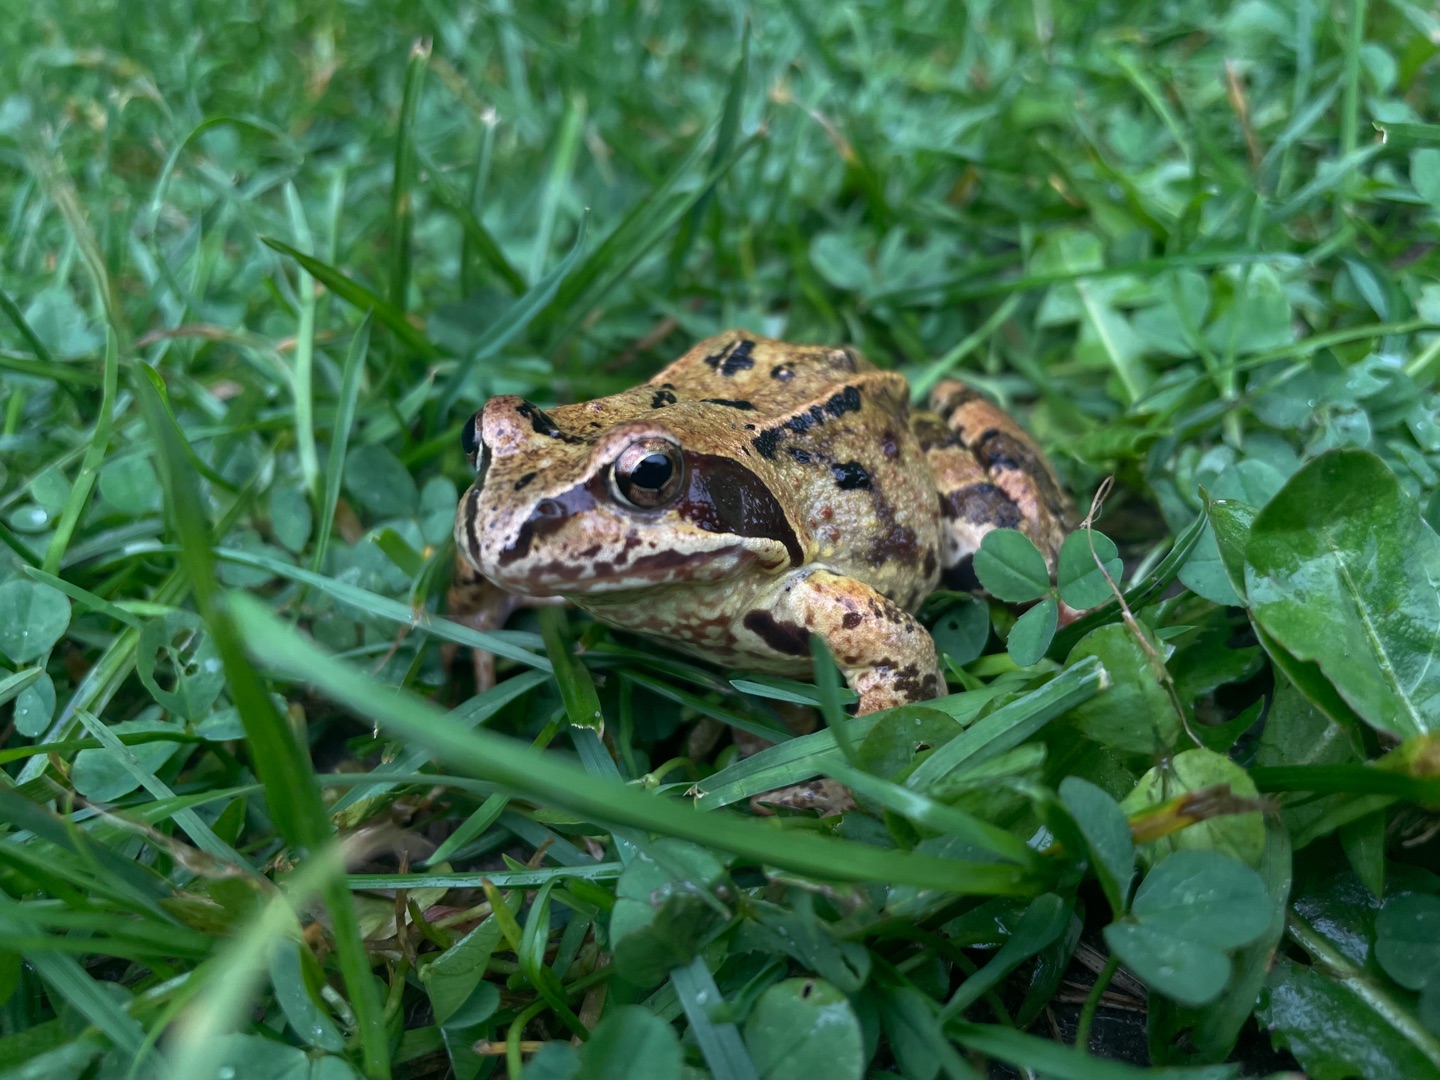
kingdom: Animalia
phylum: Chordata
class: Amphibia
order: Anura
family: Ranidae
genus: Rana
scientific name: Rana temporaria
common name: Butsnudet frø
